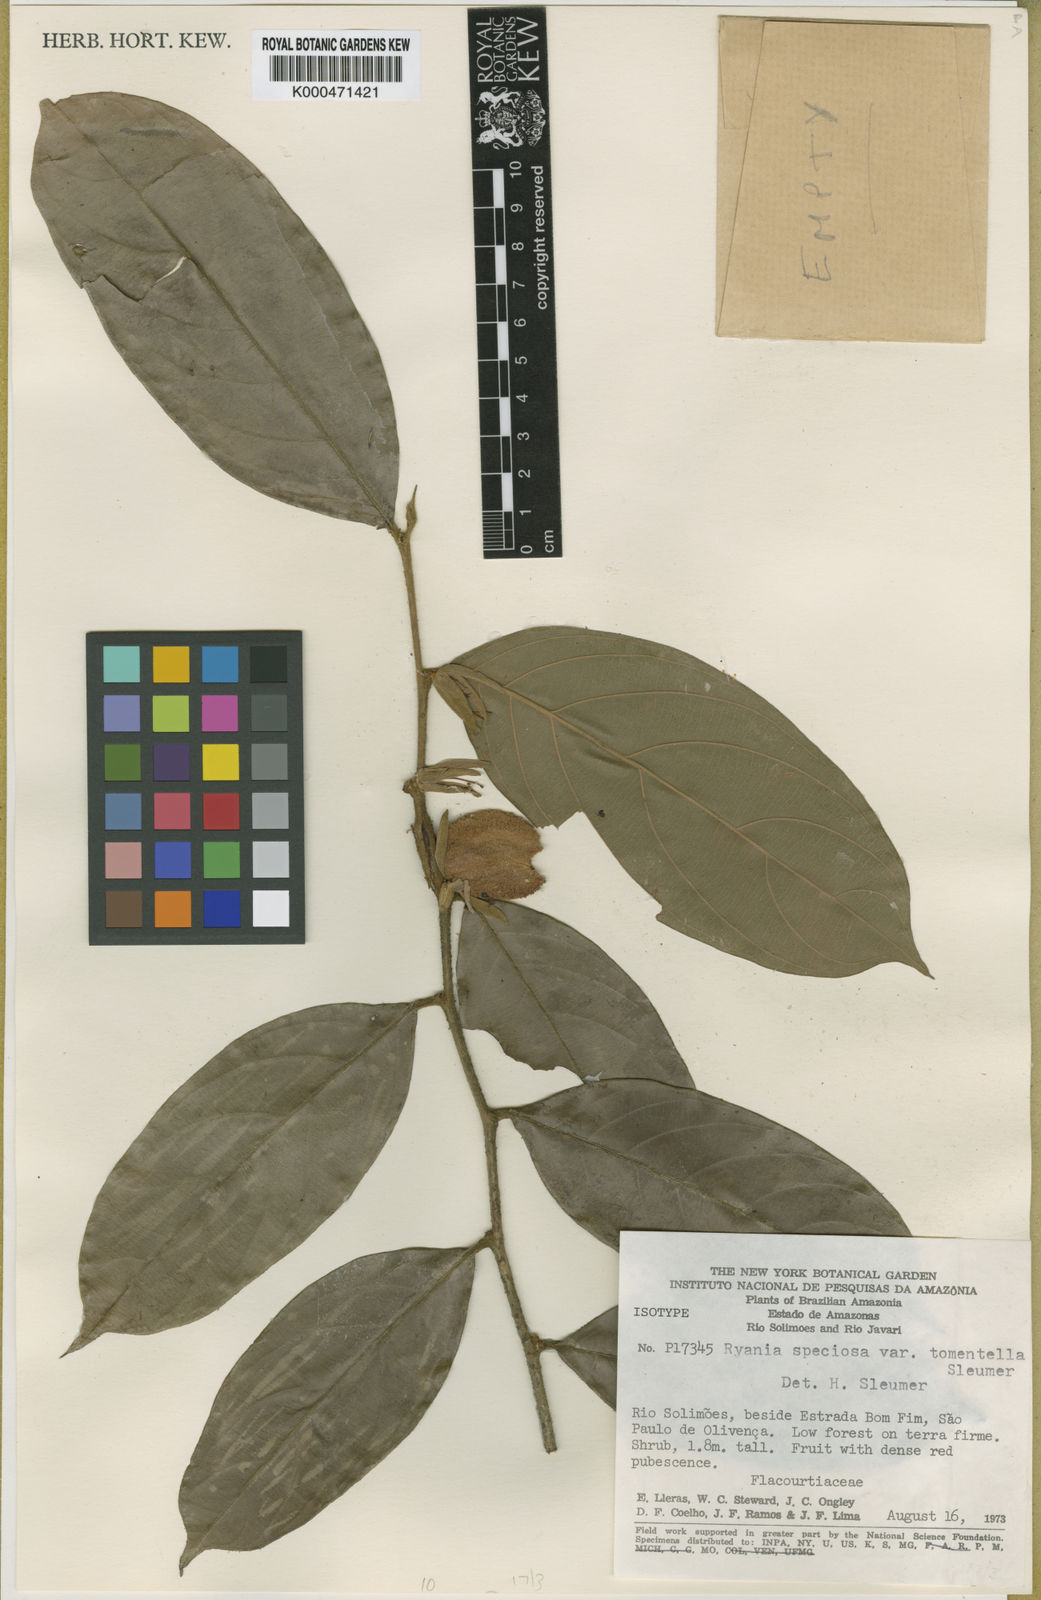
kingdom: Plantae
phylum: Tracheophyta
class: Magnoliopsida
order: Malpighiales
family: Salicaceae
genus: Ryania
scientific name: Ryania speciosa
